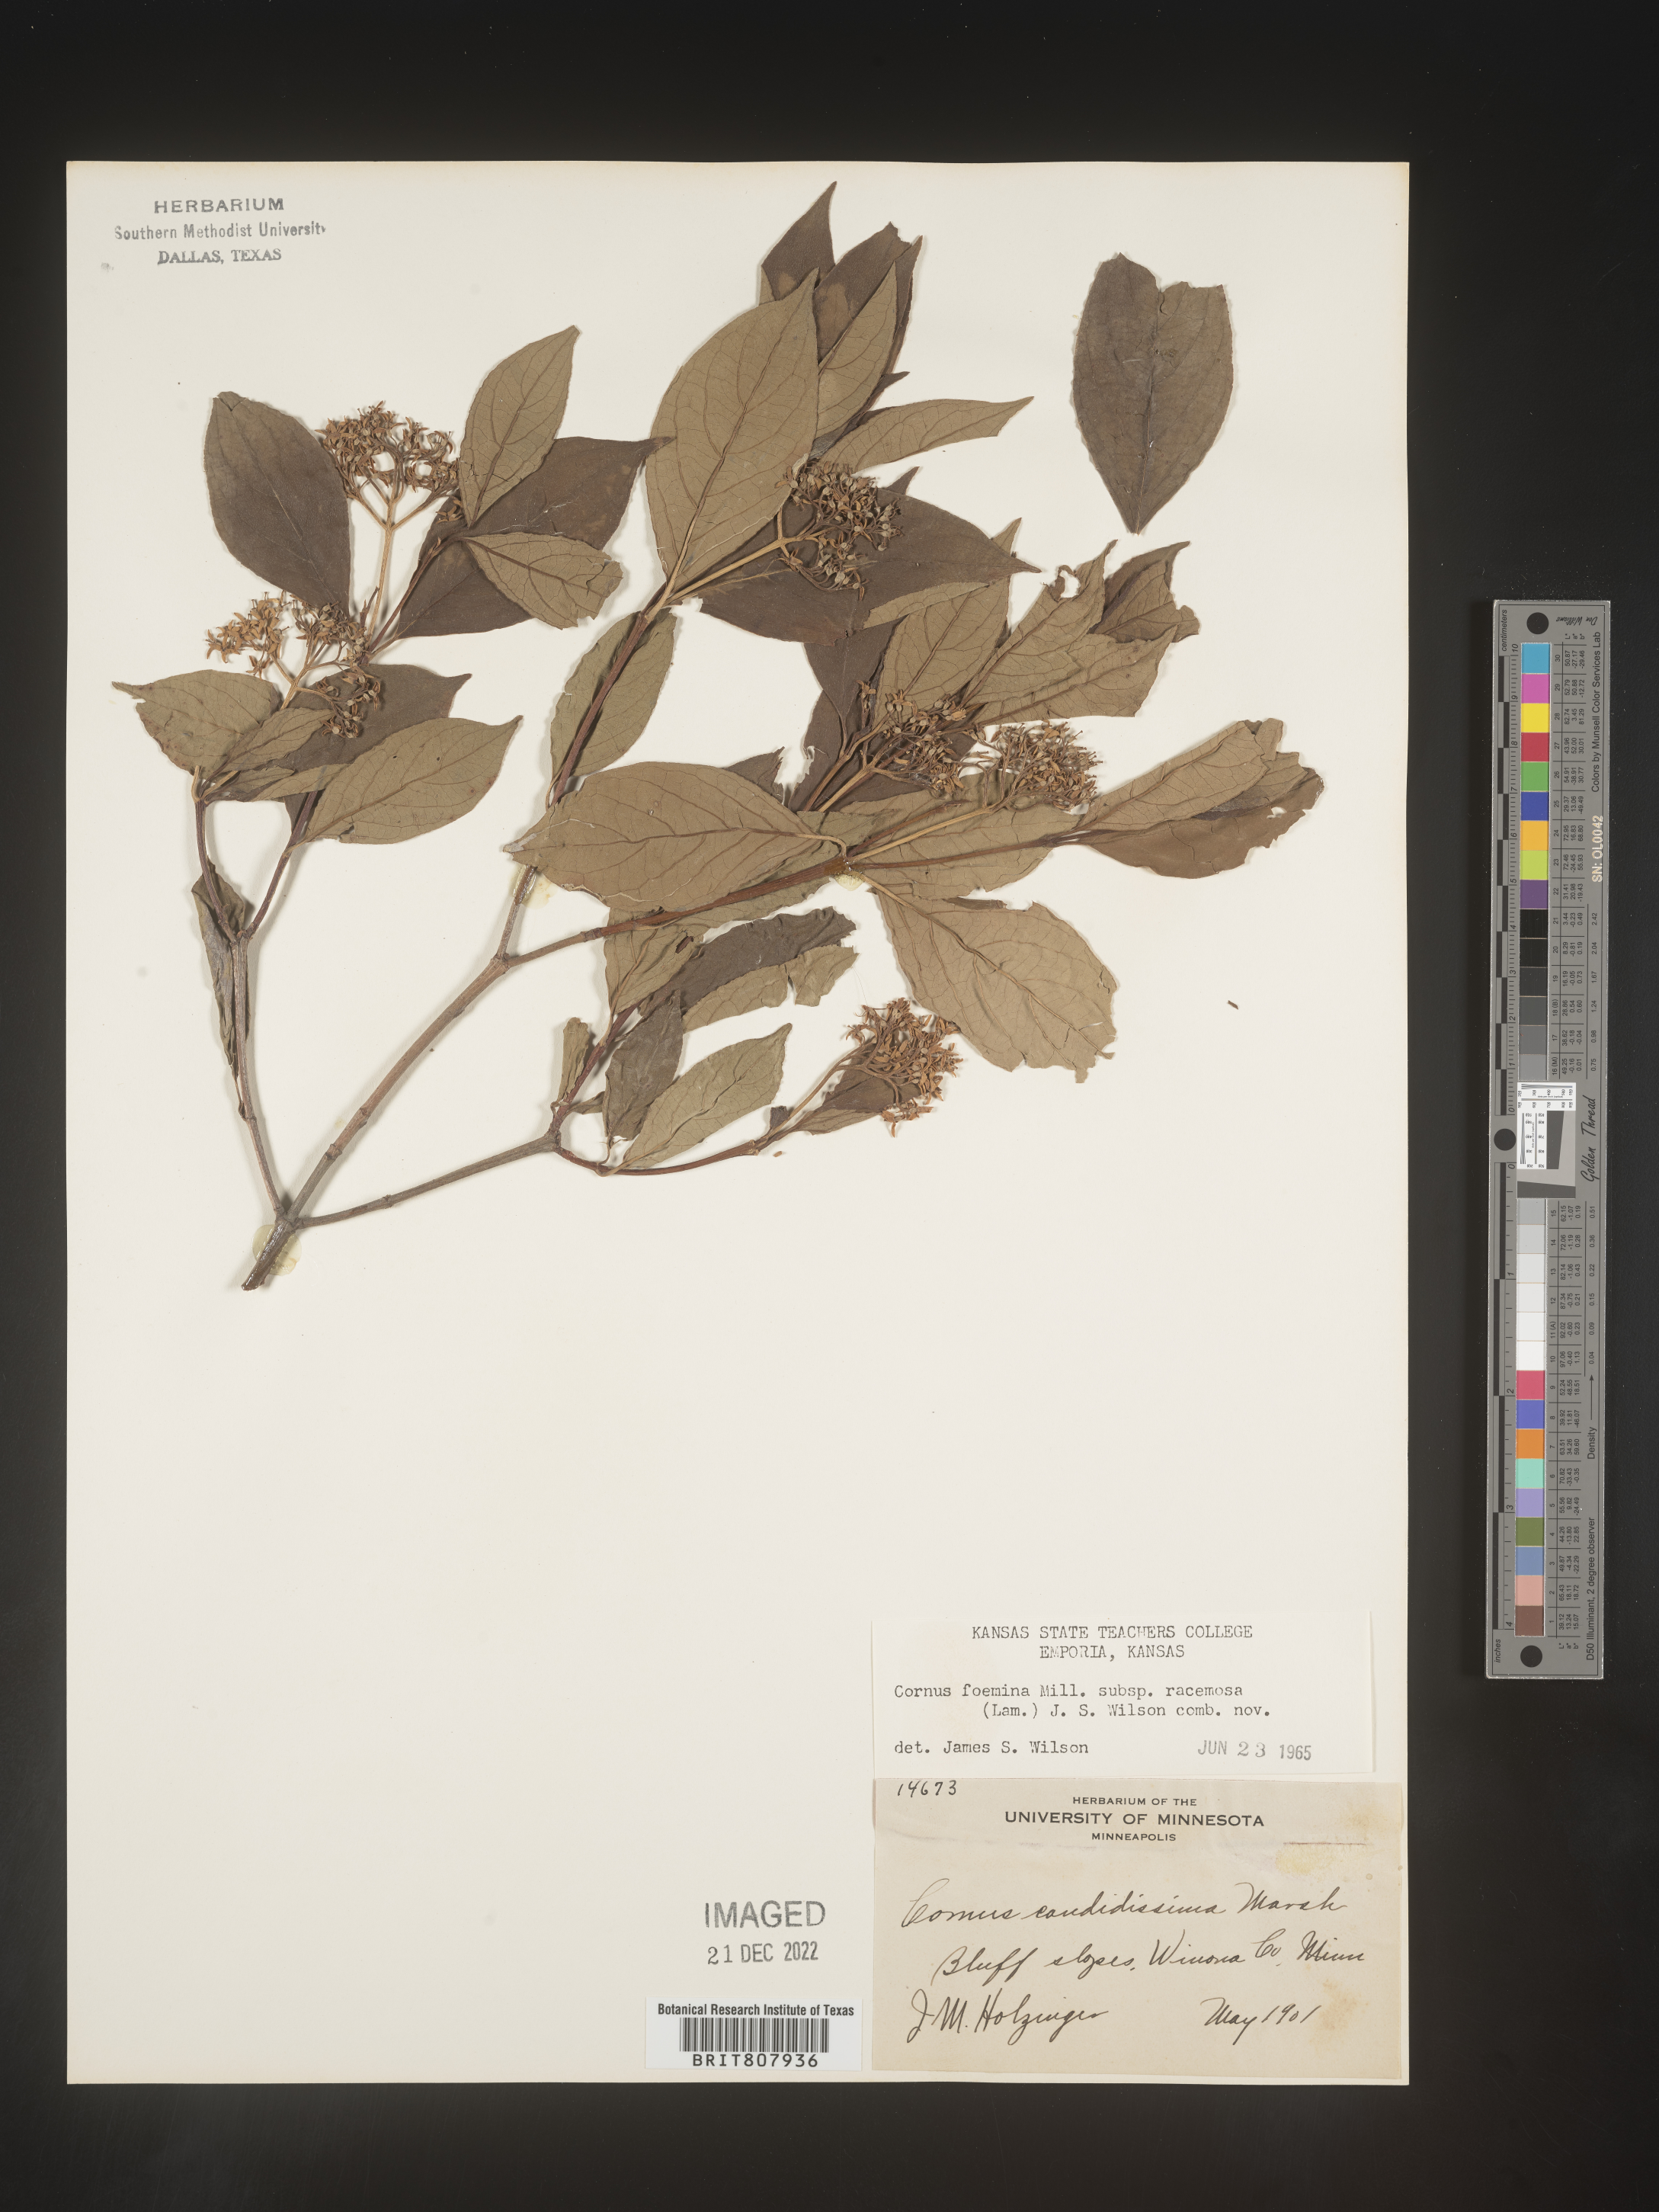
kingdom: Plantae
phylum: Tracheophyta
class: Magnoliopsida
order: Cornales
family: Cornaceae
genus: Cornus
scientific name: Cornus racemosa
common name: Panicled dogwood
